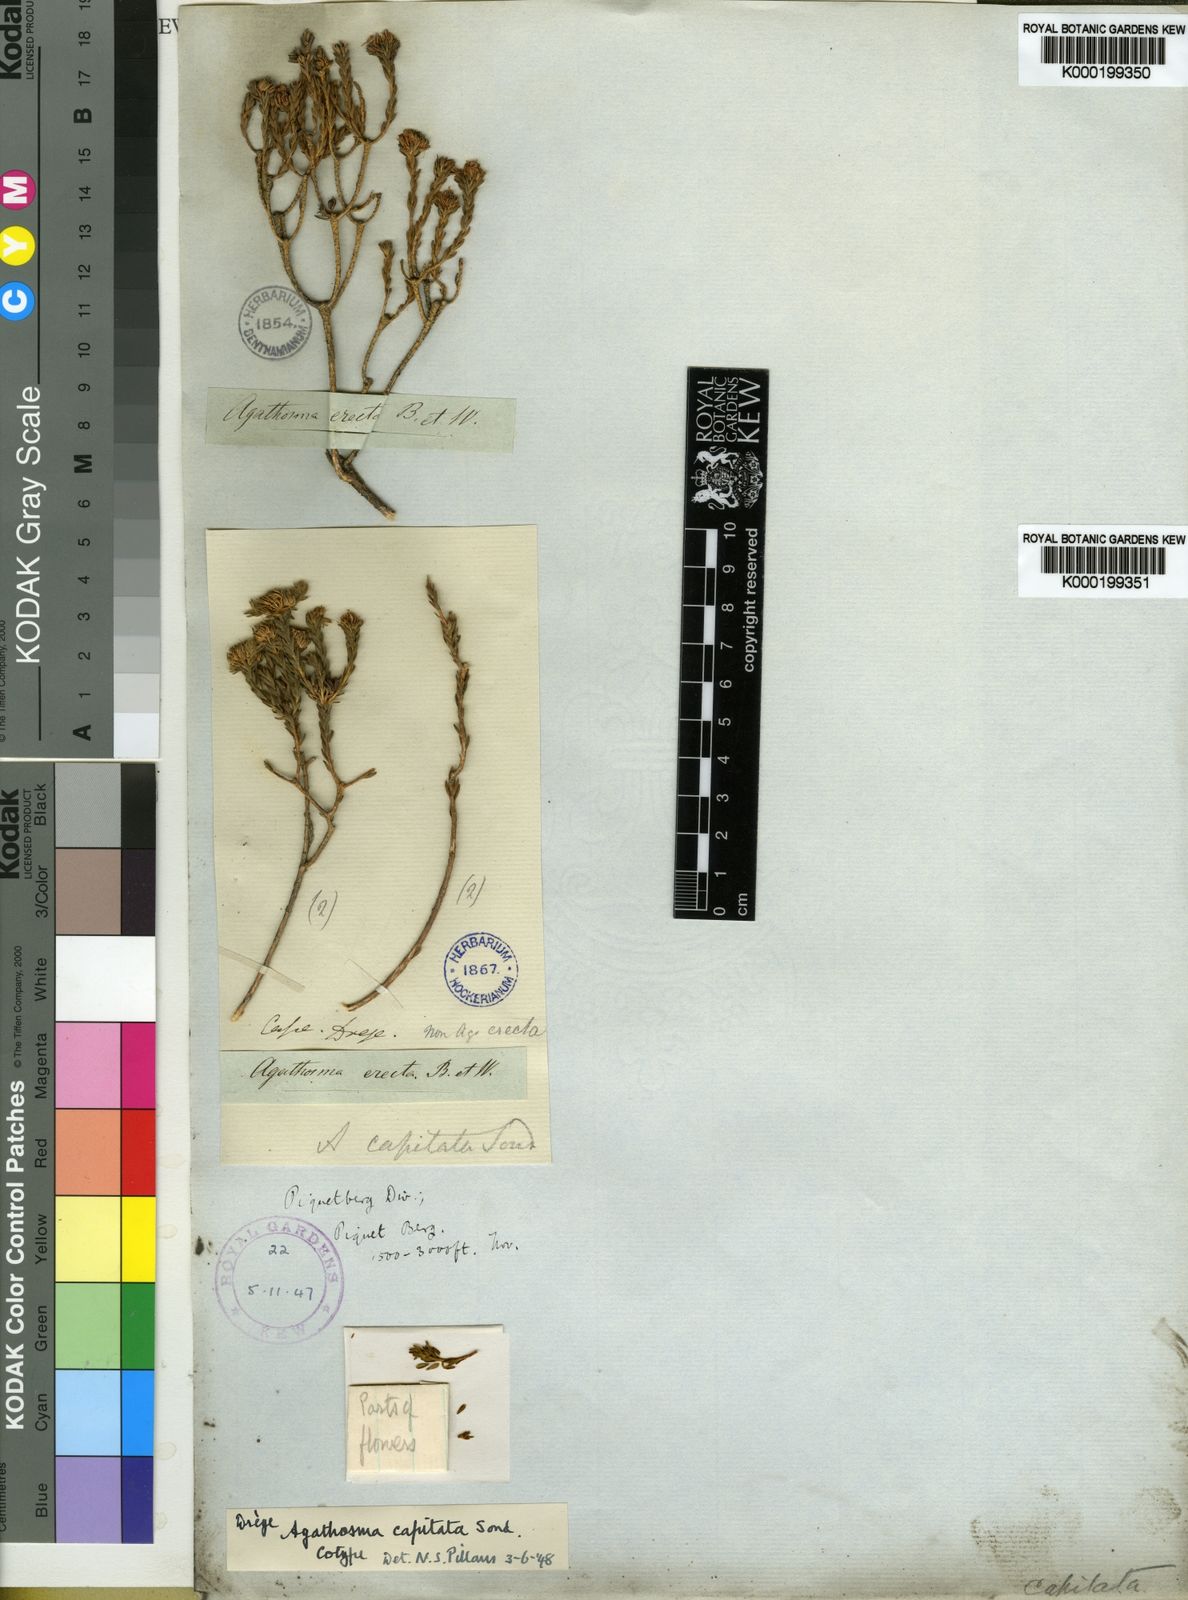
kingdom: Plantae
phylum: Tracheophyta
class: Magnoliopsida
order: Sapindales
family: Rutaceae
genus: Agathosma
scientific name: Agathosma capitata
